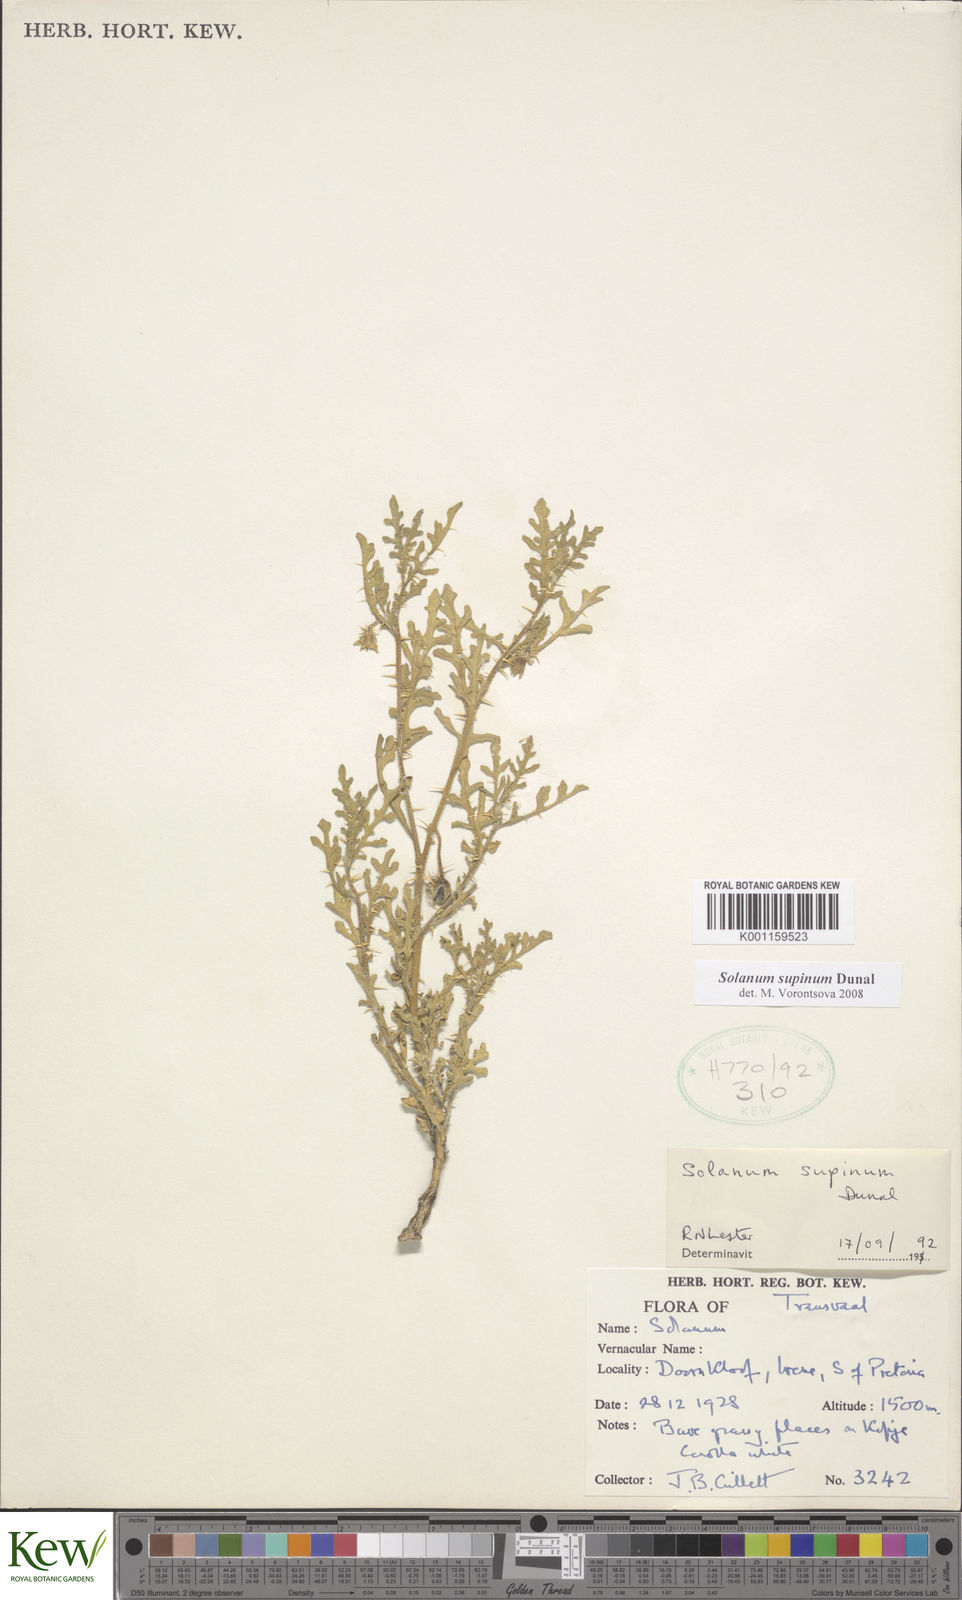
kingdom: Plantae
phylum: Tracheophyta
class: Magnoliopsida
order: Solanales
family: Solanaceae
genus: Solanum
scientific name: Solanum supinum
